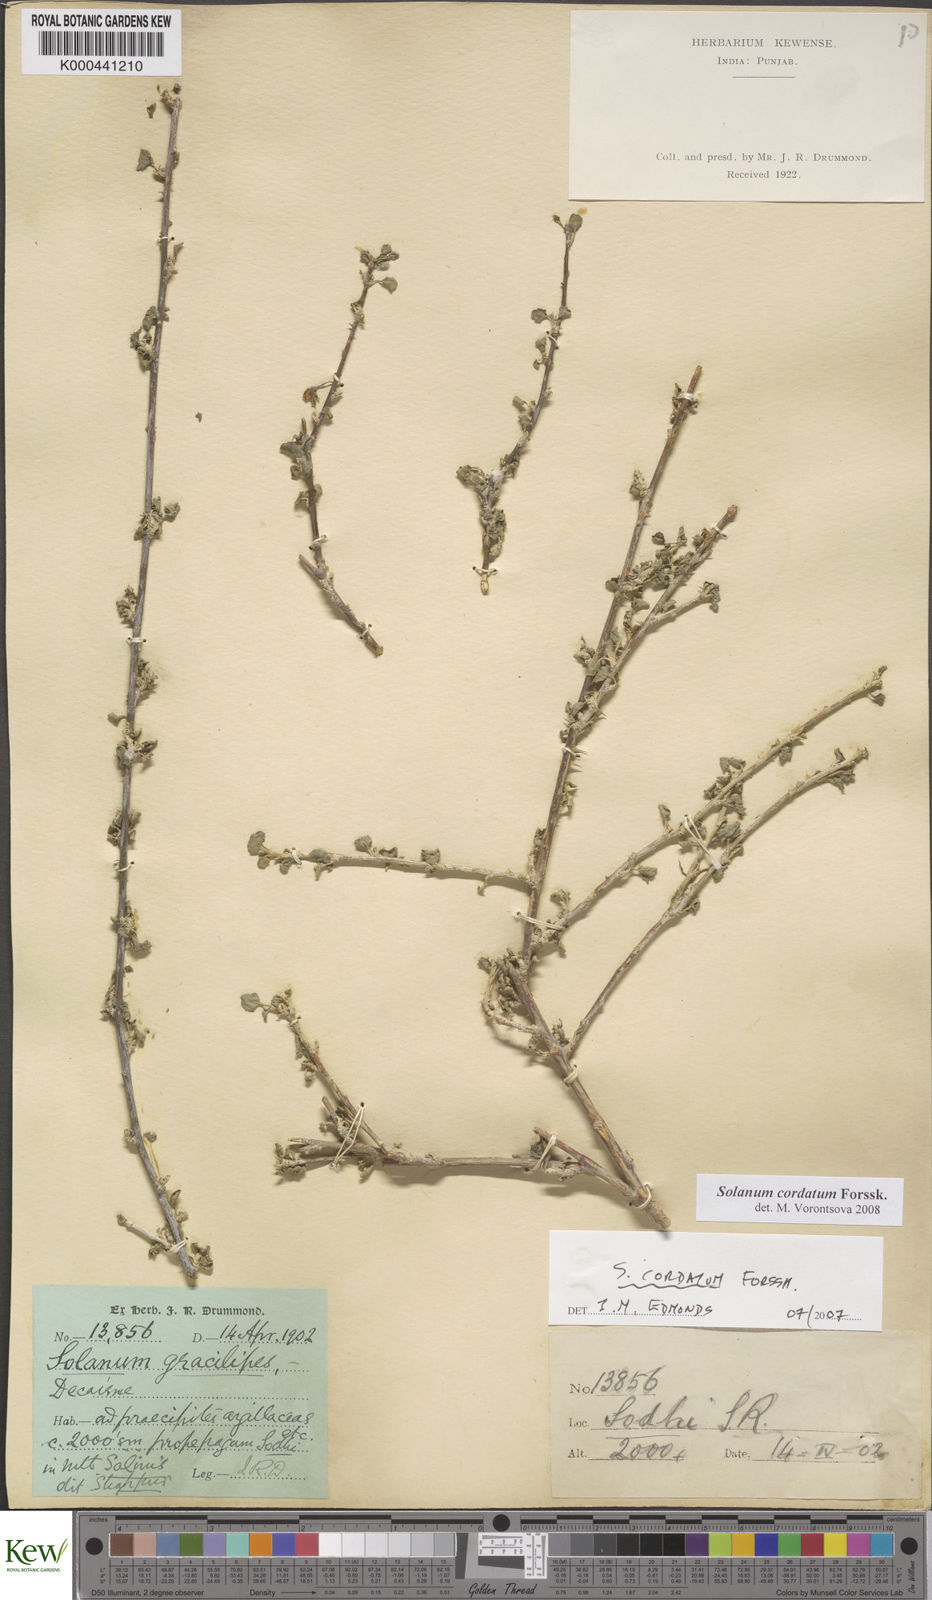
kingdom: Plantae
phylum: Tracheophyta
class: Magnoliopsida
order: Solanales
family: Solanaceae
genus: Solanum
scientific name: Solanum cordatum
